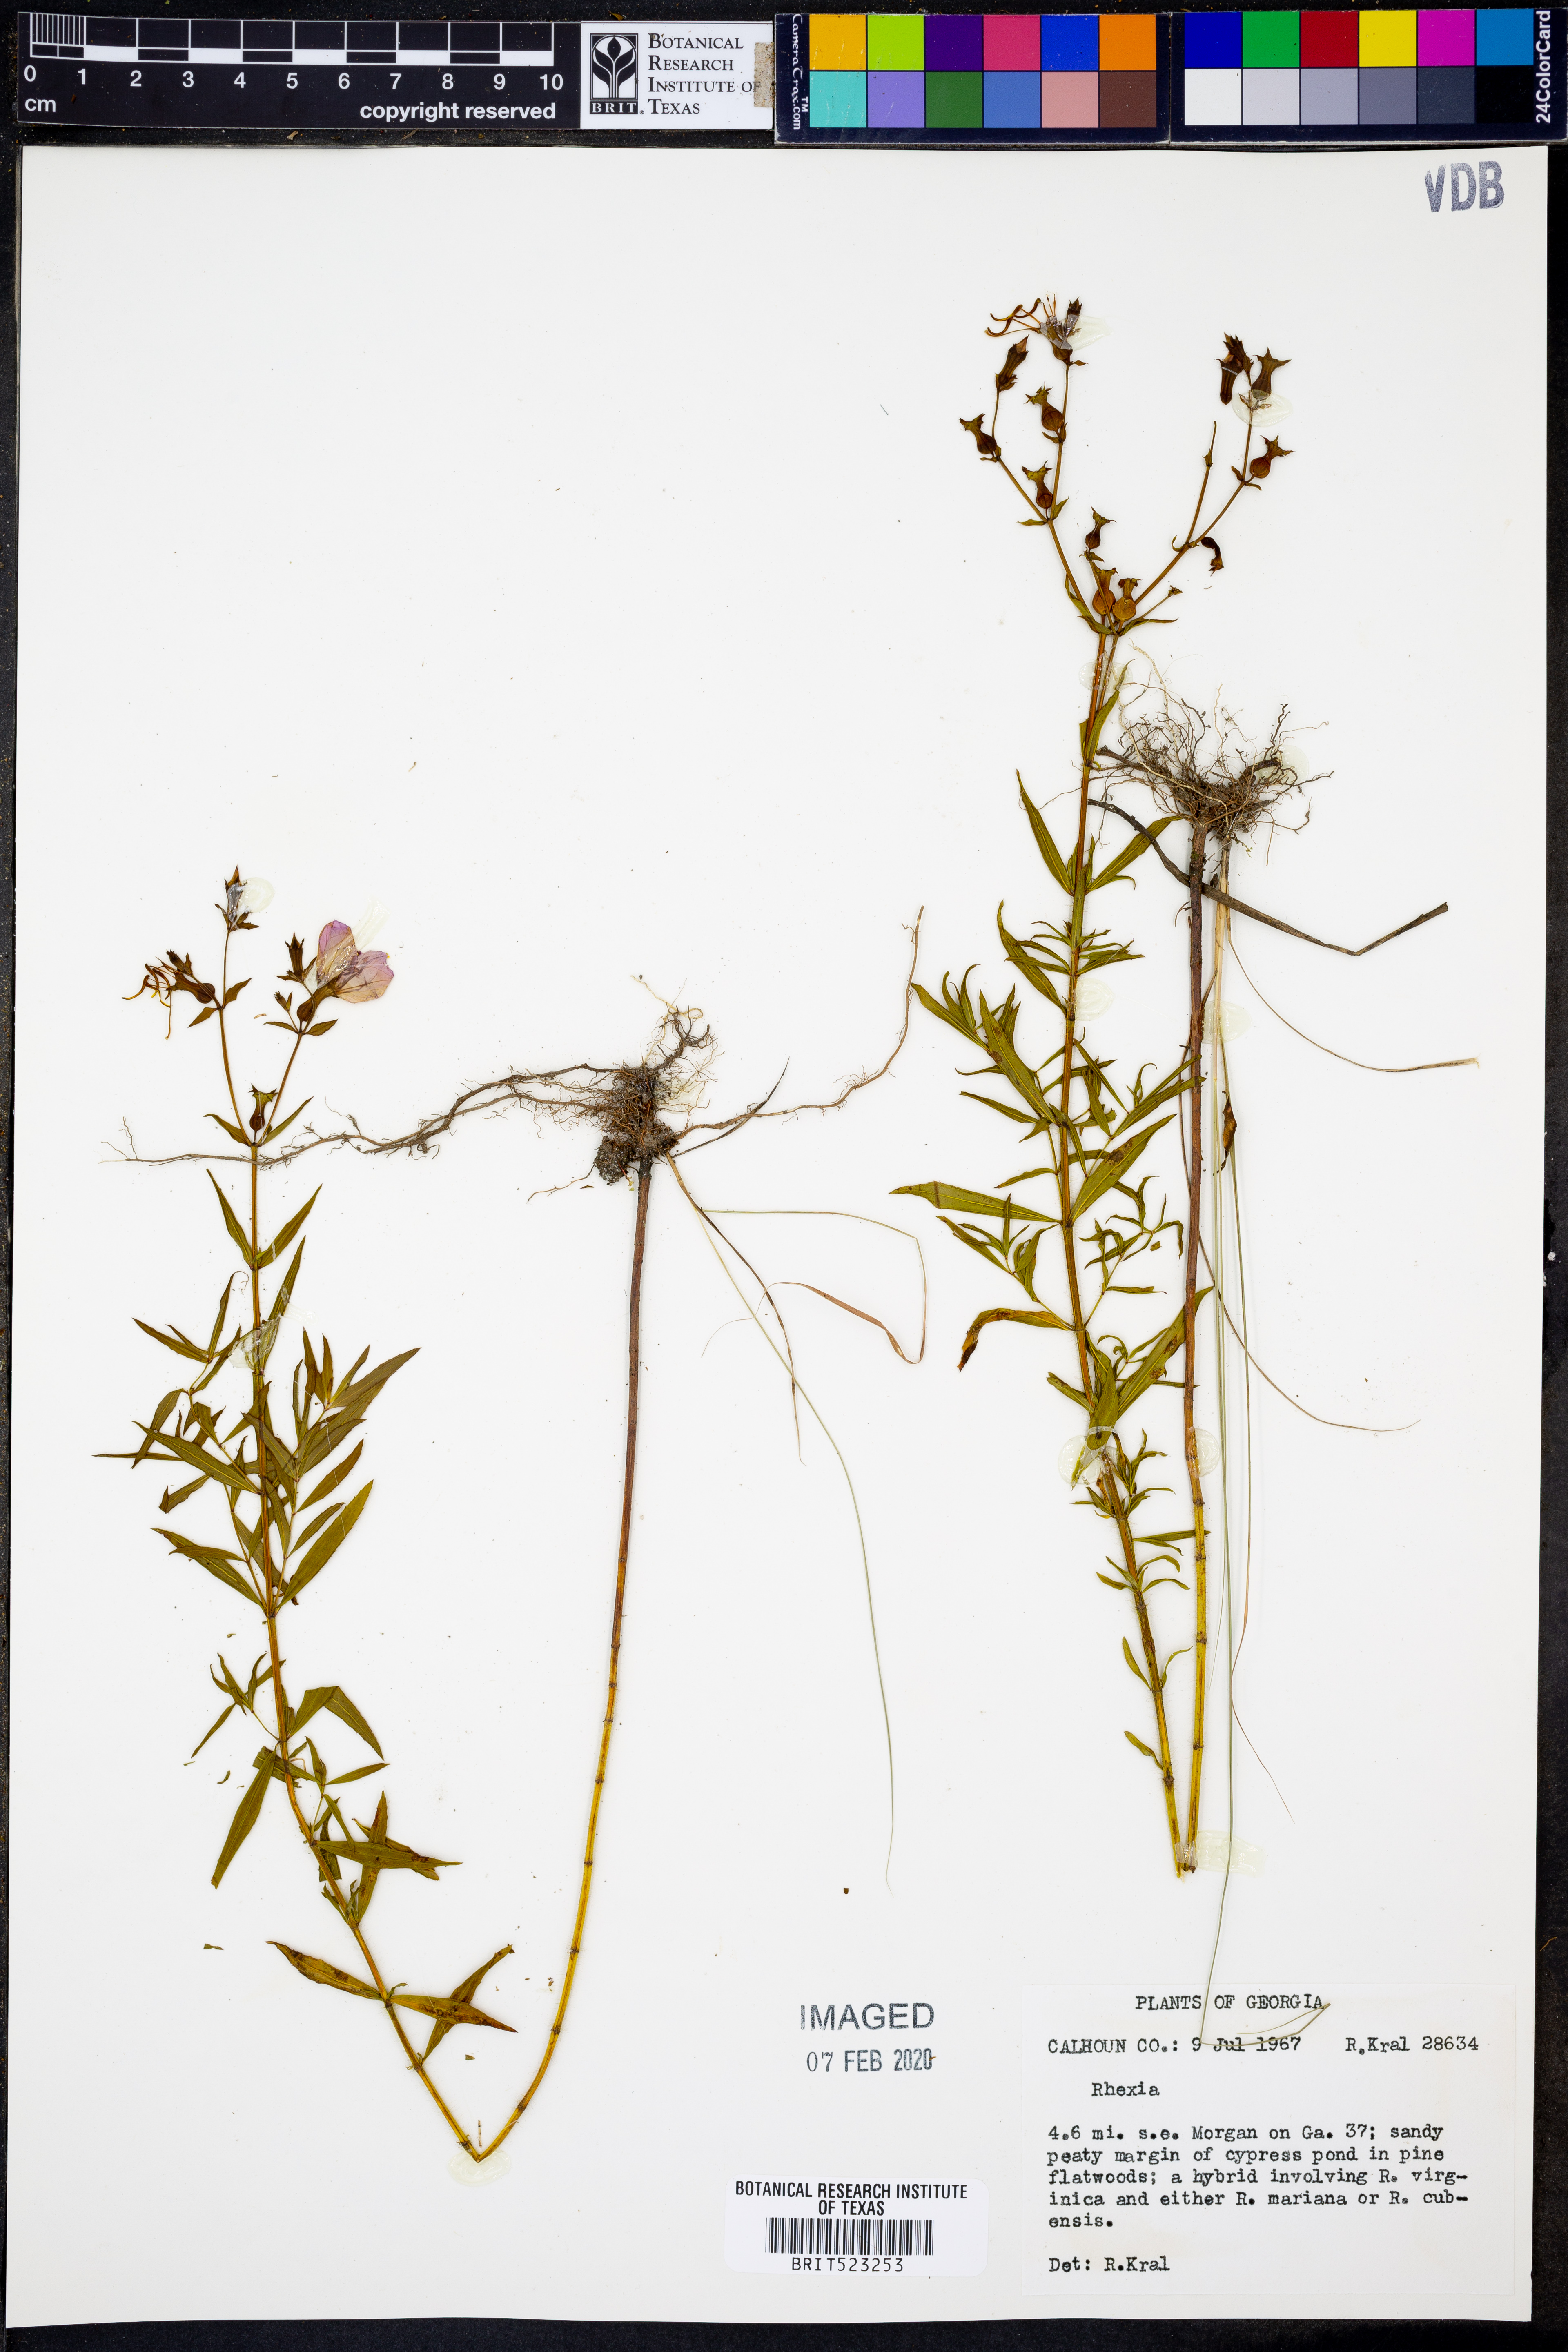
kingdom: Plantae
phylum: Tracheophyta
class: Magnoliopsida
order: Myrtales
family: Melastomataceae
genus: Rhexia
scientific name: Rhexia
